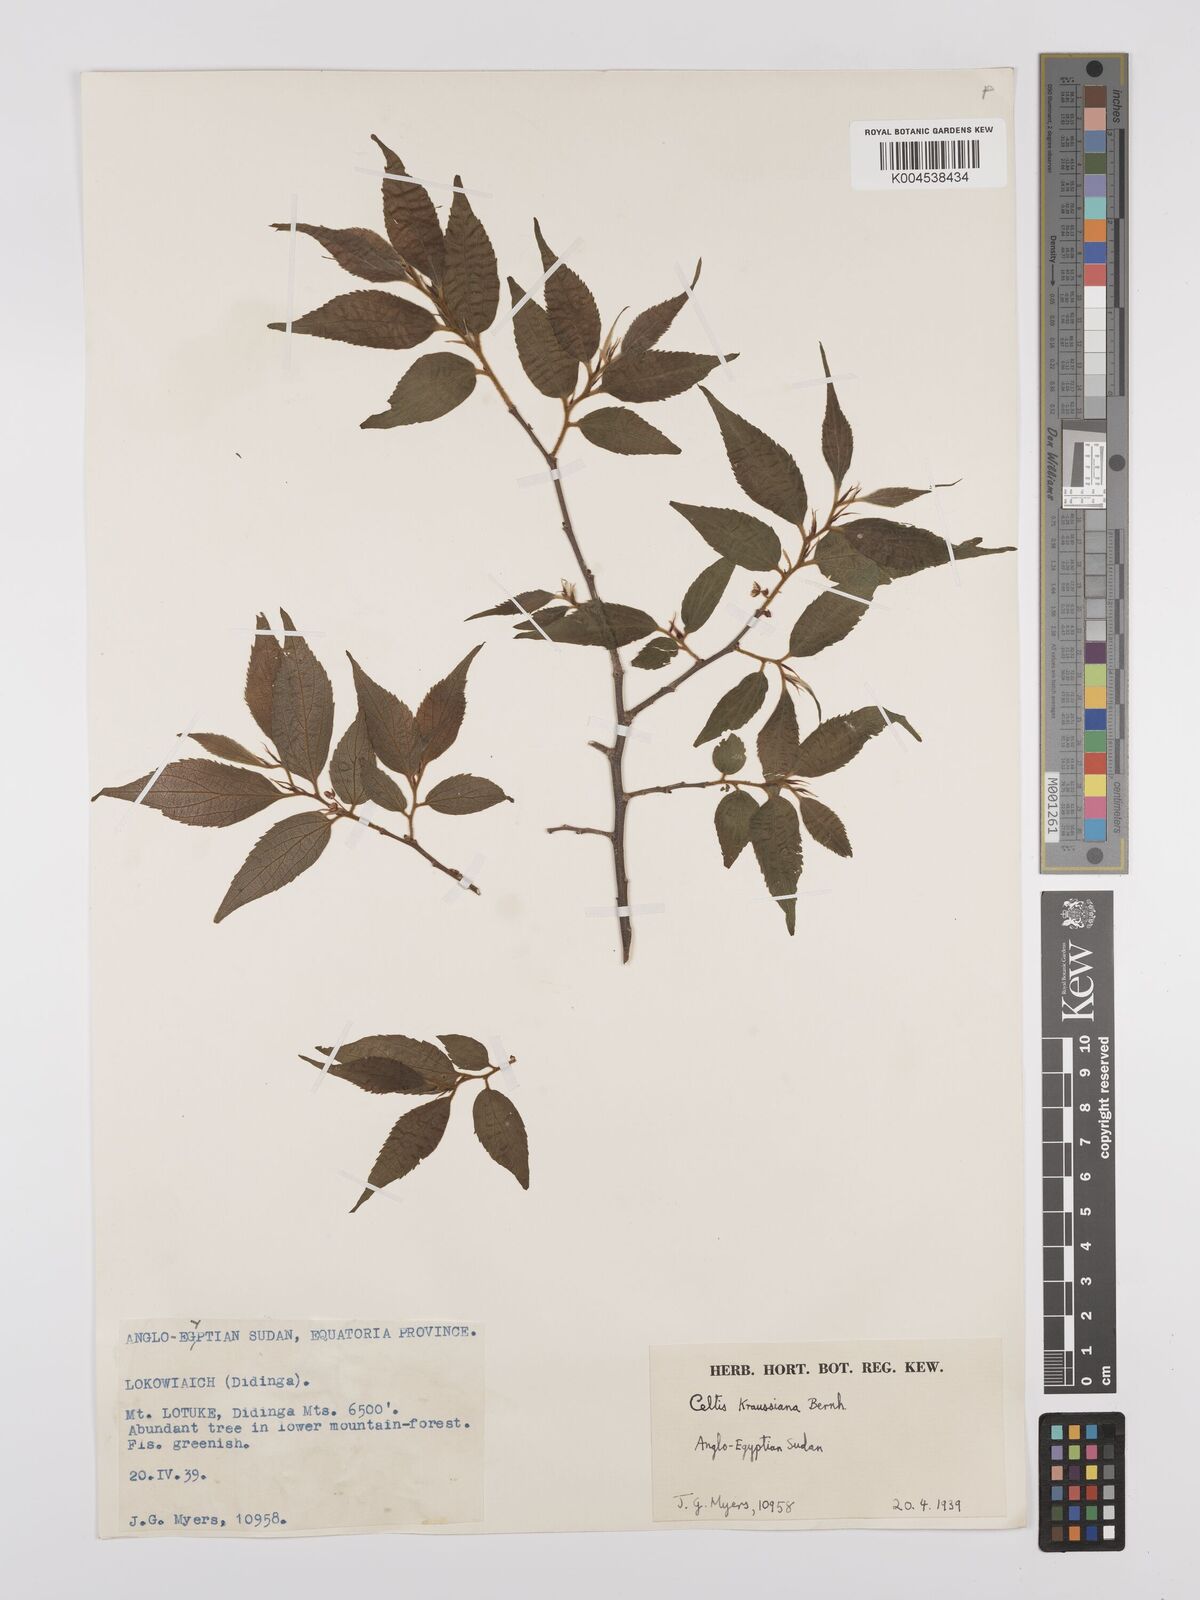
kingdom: Plantae
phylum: Tracheophyta
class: Magnoliopsida
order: Rosales
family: Cannabaceae
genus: Celtis
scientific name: Celtis africana
